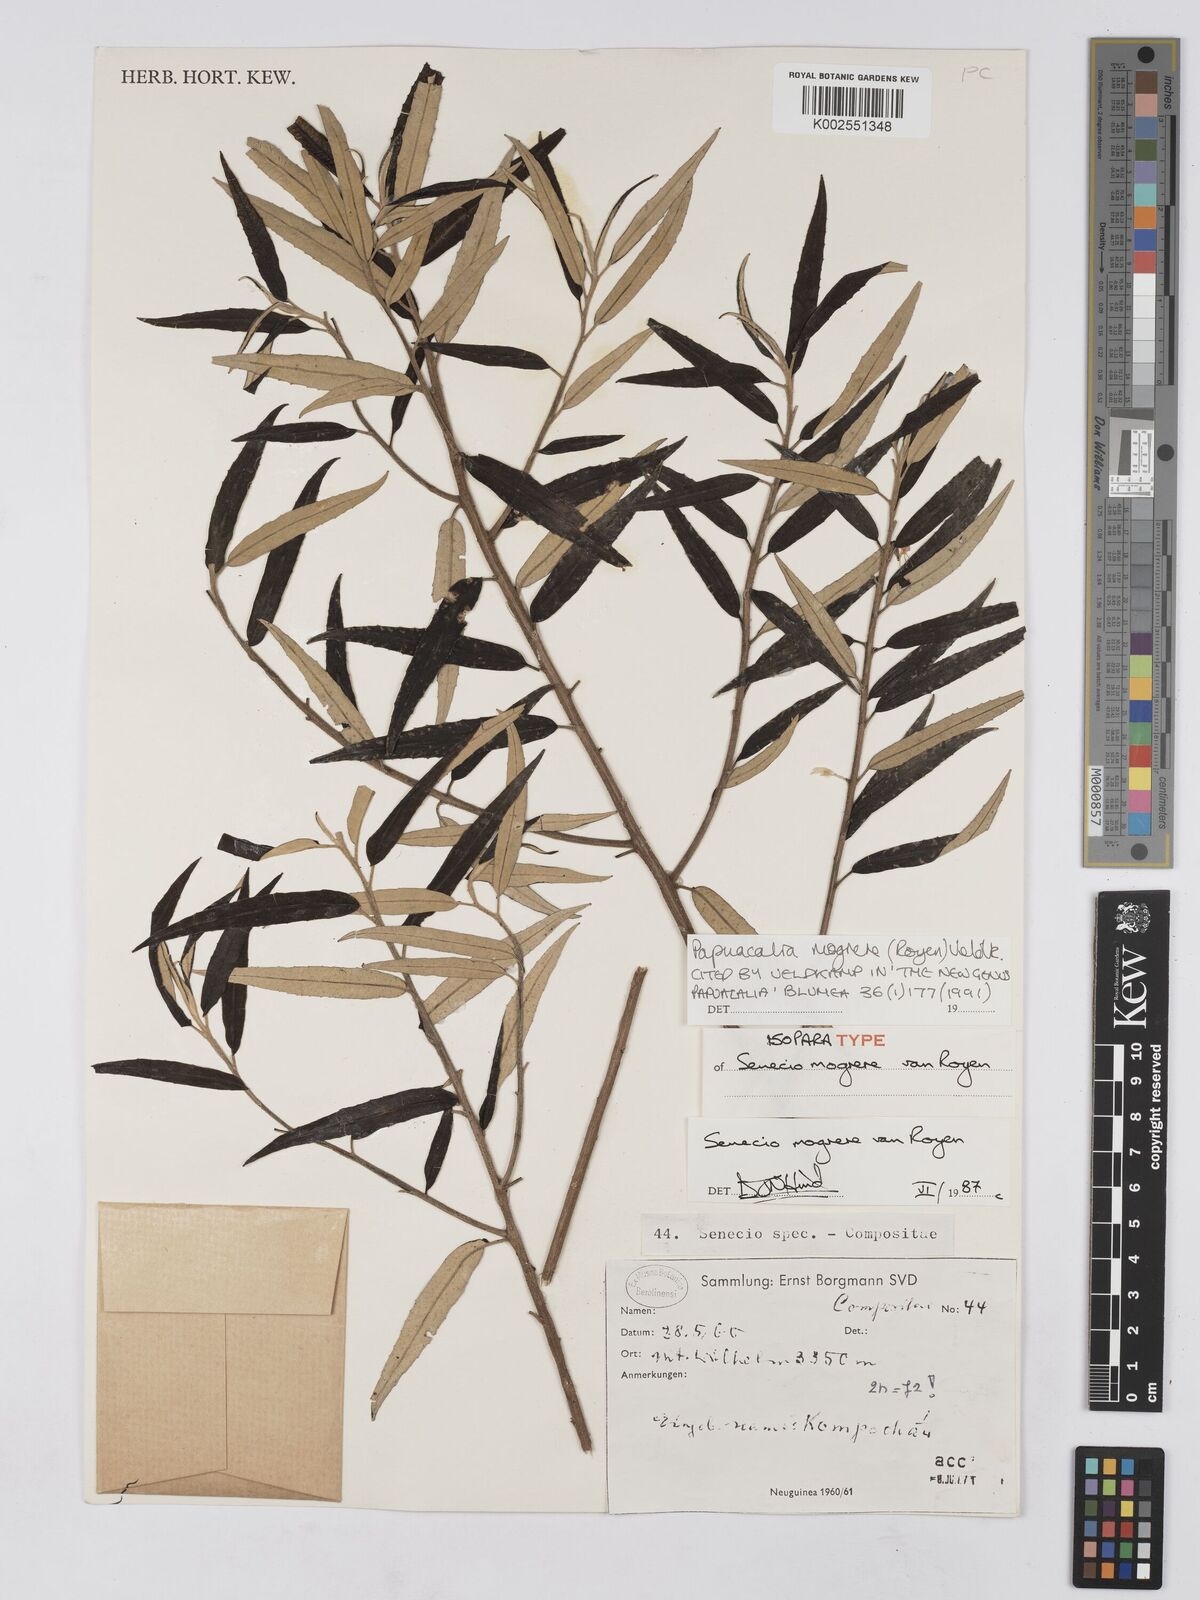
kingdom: Plantae
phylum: Tracheophyta
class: Magnoliopsida
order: Asterales
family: Asteraceae
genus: Papuacalia
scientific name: Papuacalia mogrere
